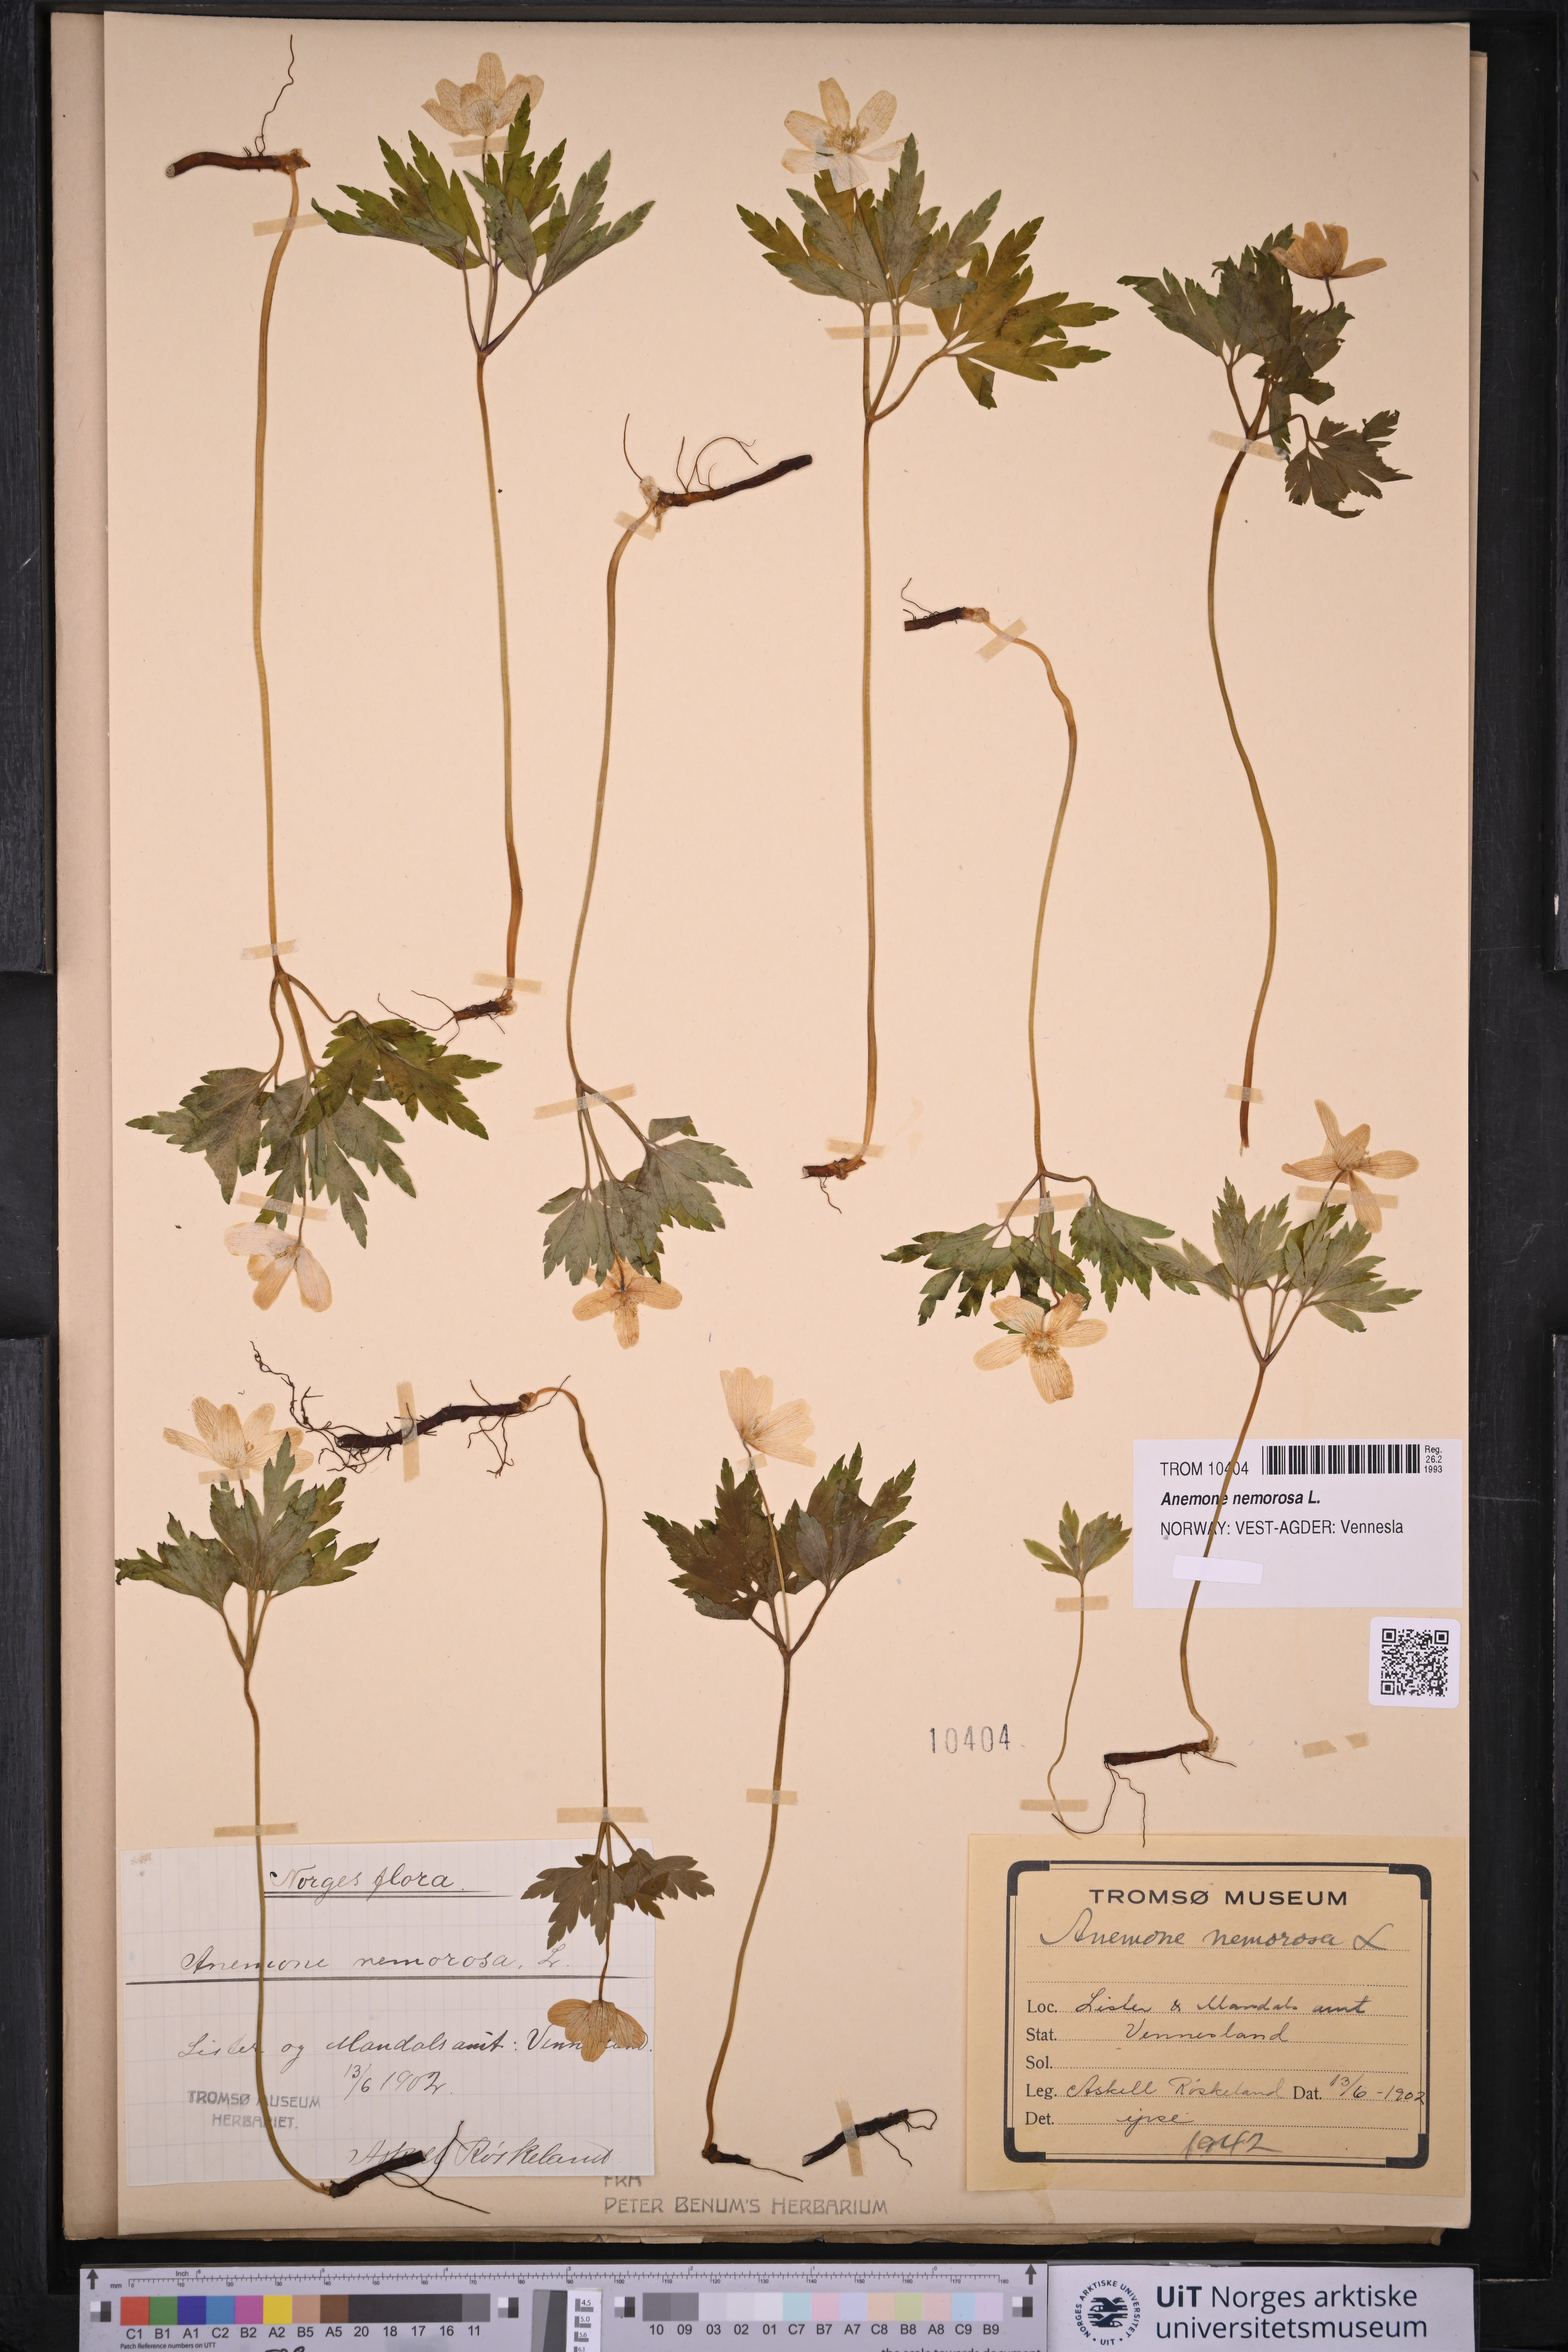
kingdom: Plantae
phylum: Tracheophyta
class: Magnoliopsida
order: Ranunculales
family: Ranunculaceae
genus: Anemone
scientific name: Anemone nemorosa
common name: Wood anemone
